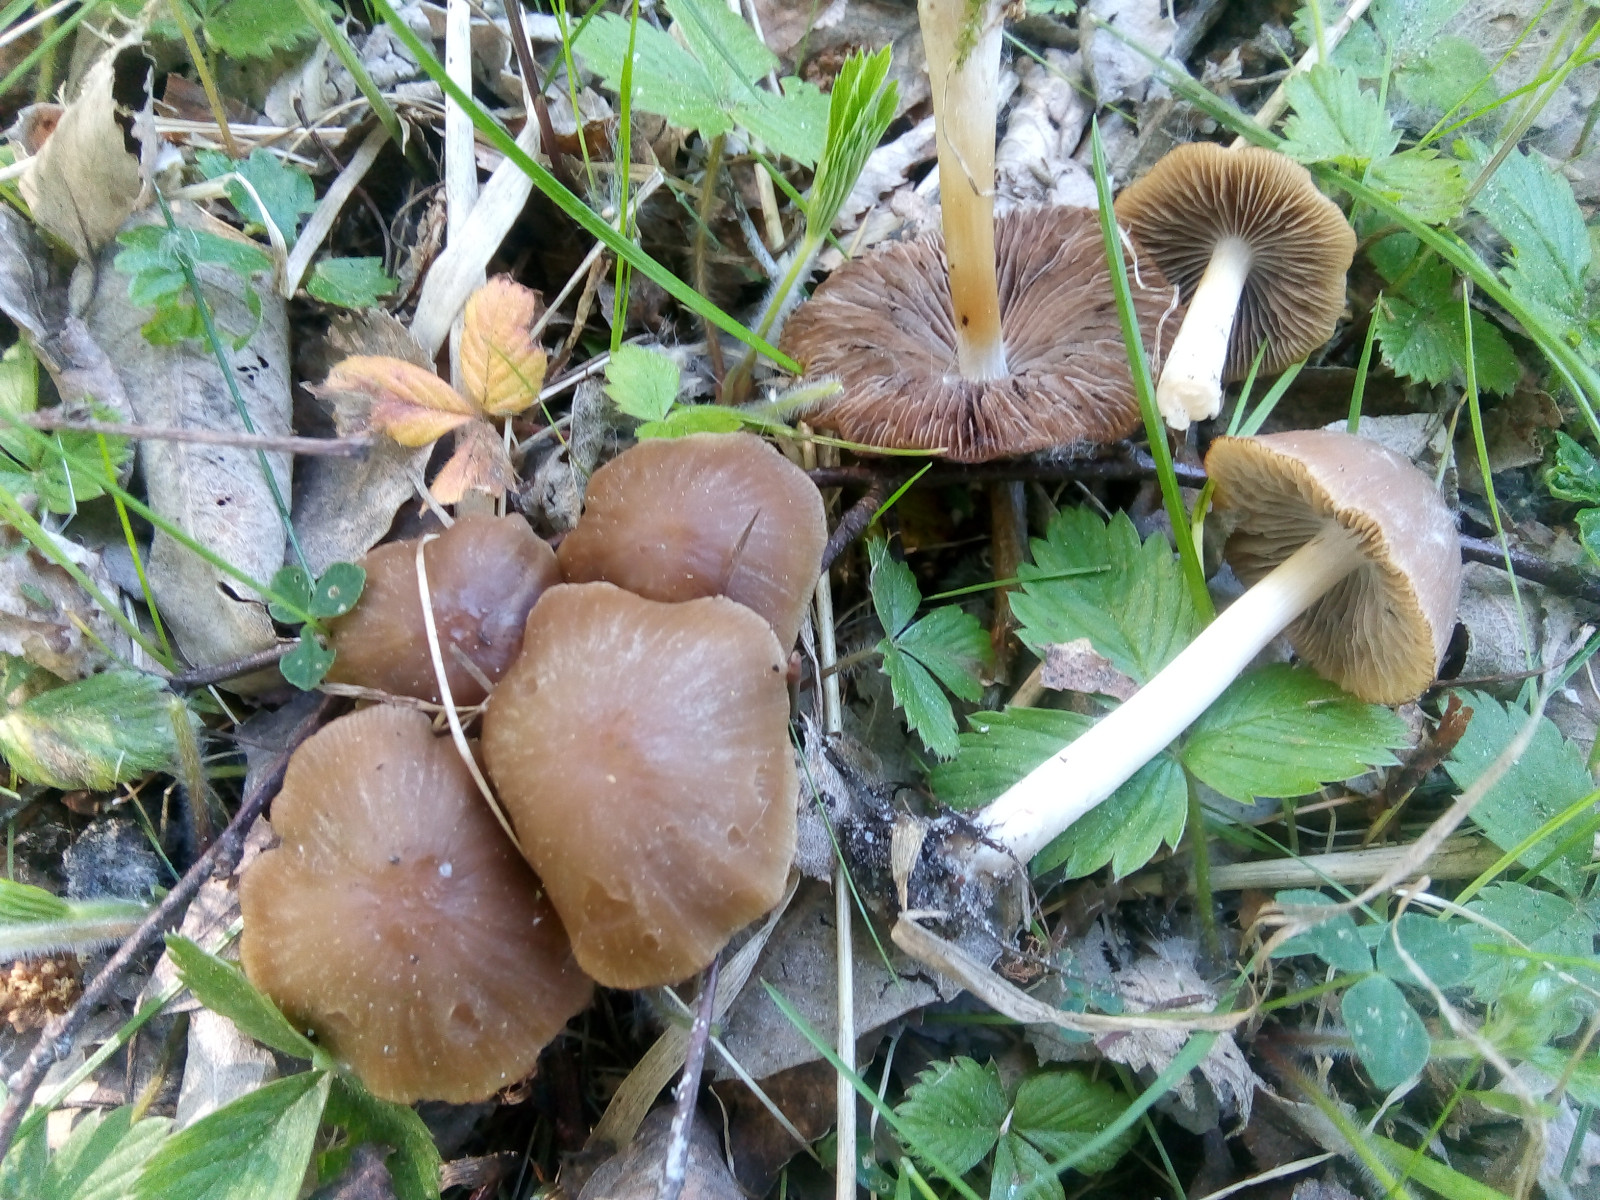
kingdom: Fungi
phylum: Basidiomycota
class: Agaricomycetes
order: Agaricales
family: Psathyrellaceae
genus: Psathyrella
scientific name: Psathyrella
